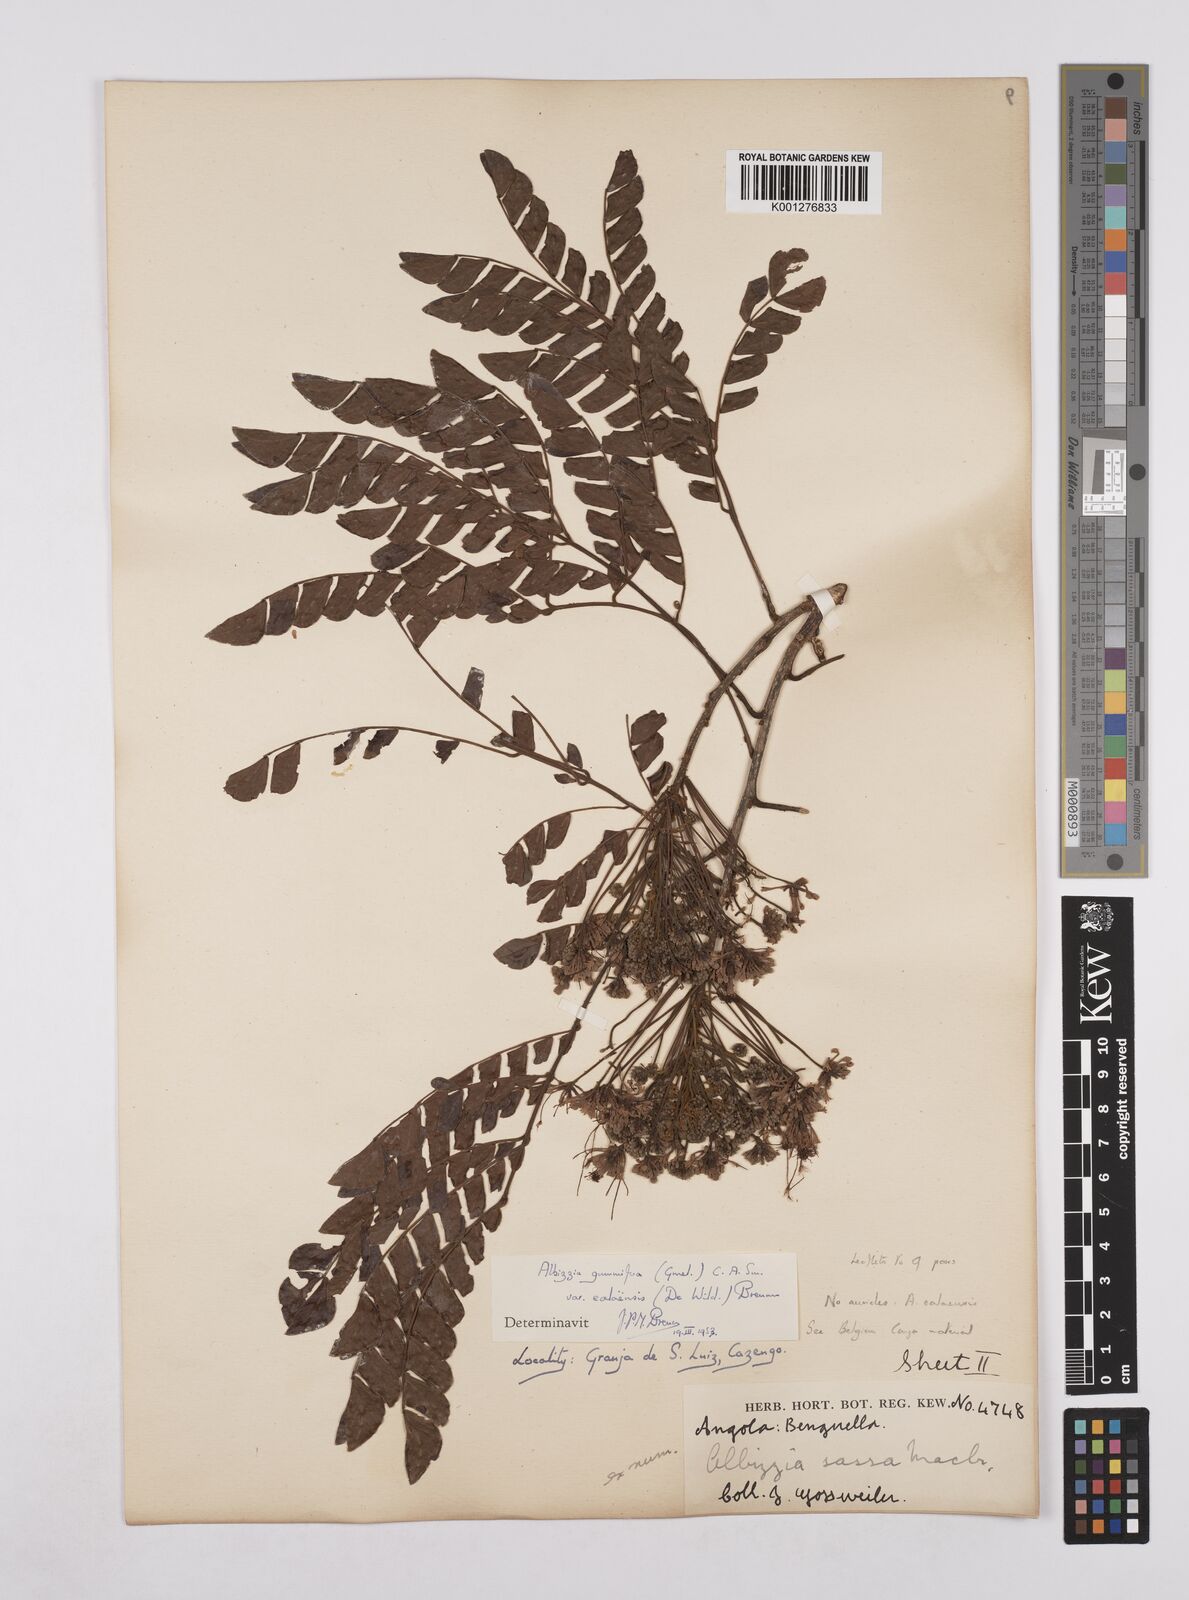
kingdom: Plantae
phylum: Tracheophyta
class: Magnoliopsida
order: Fabales
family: Fabaceae
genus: Albizia
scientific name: Albizia gummifera
